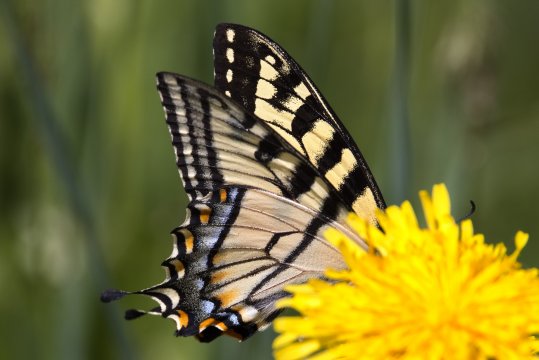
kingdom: Animalia
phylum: Arthropoda
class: Insecta
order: Lepidoptera
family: Papilionidae
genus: Pterourus
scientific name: Pterourus canadensis
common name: Canadian Tiger Swallowtail
